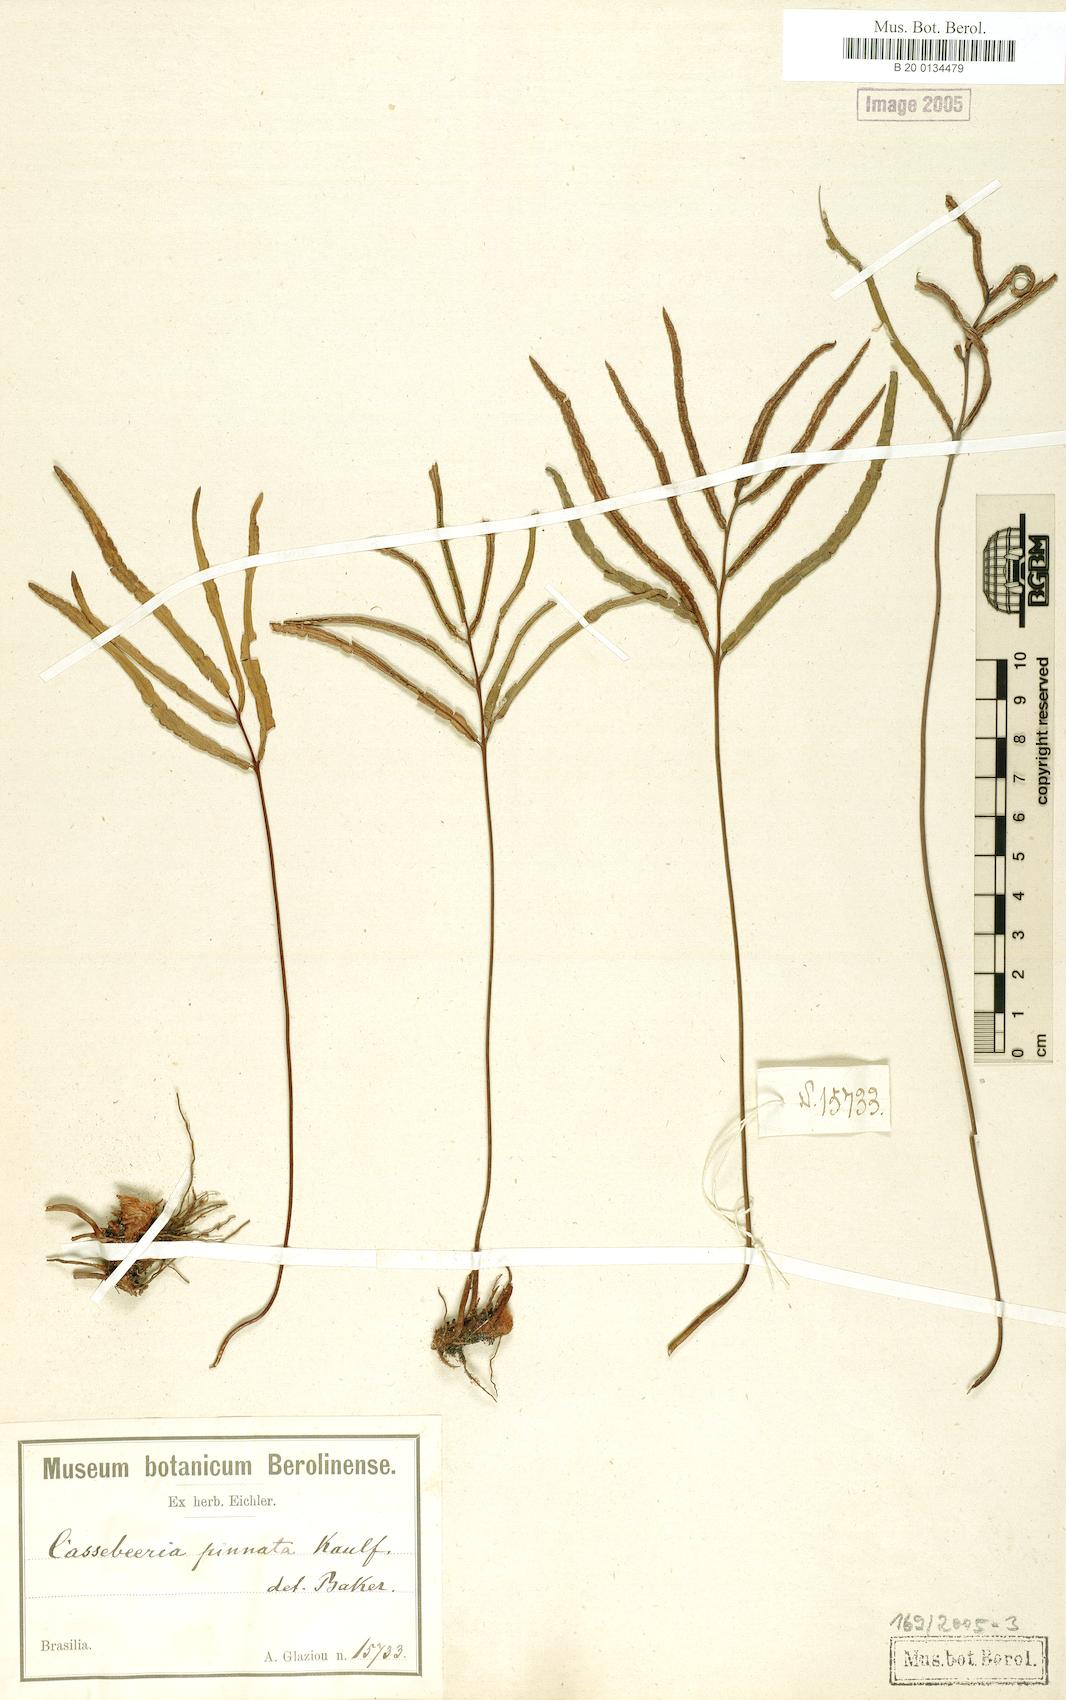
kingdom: Plantae
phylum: Tracheophyta
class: Polypodiopsida
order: Polypodiales
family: Pteridaceae
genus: Ormopteris
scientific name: Ormopteris pinnata
